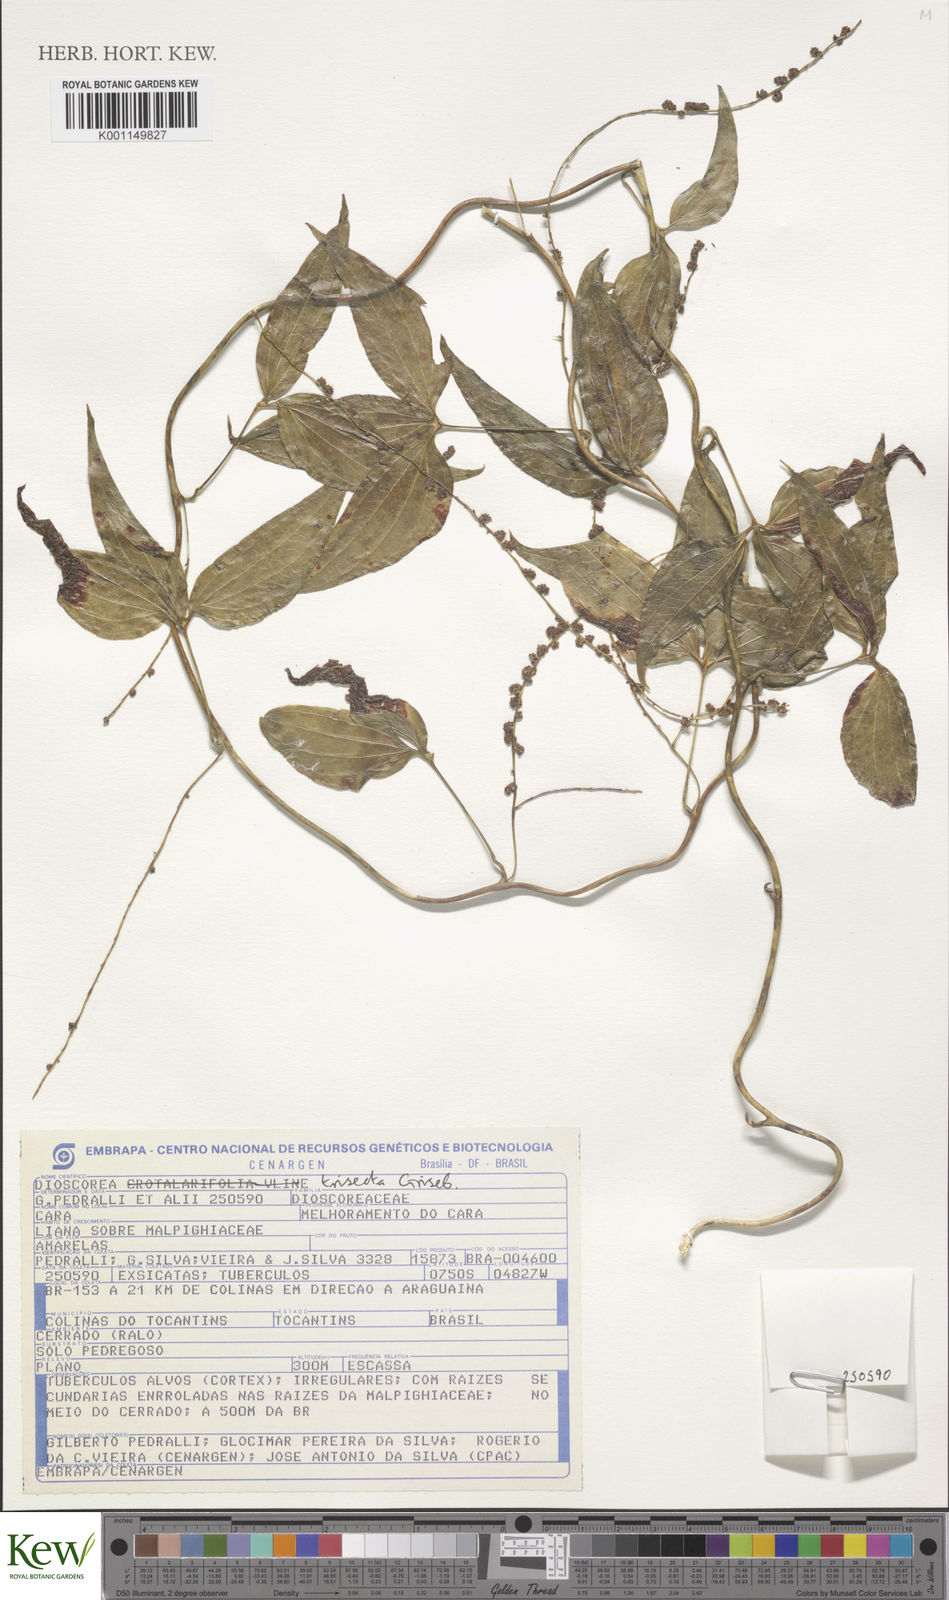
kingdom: Plantae
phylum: Tracheophyta
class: Liliopsida
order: Dioscoreales
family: Dioscoreaceae
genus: Dioscorea
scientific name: Dioscorea trisecta
